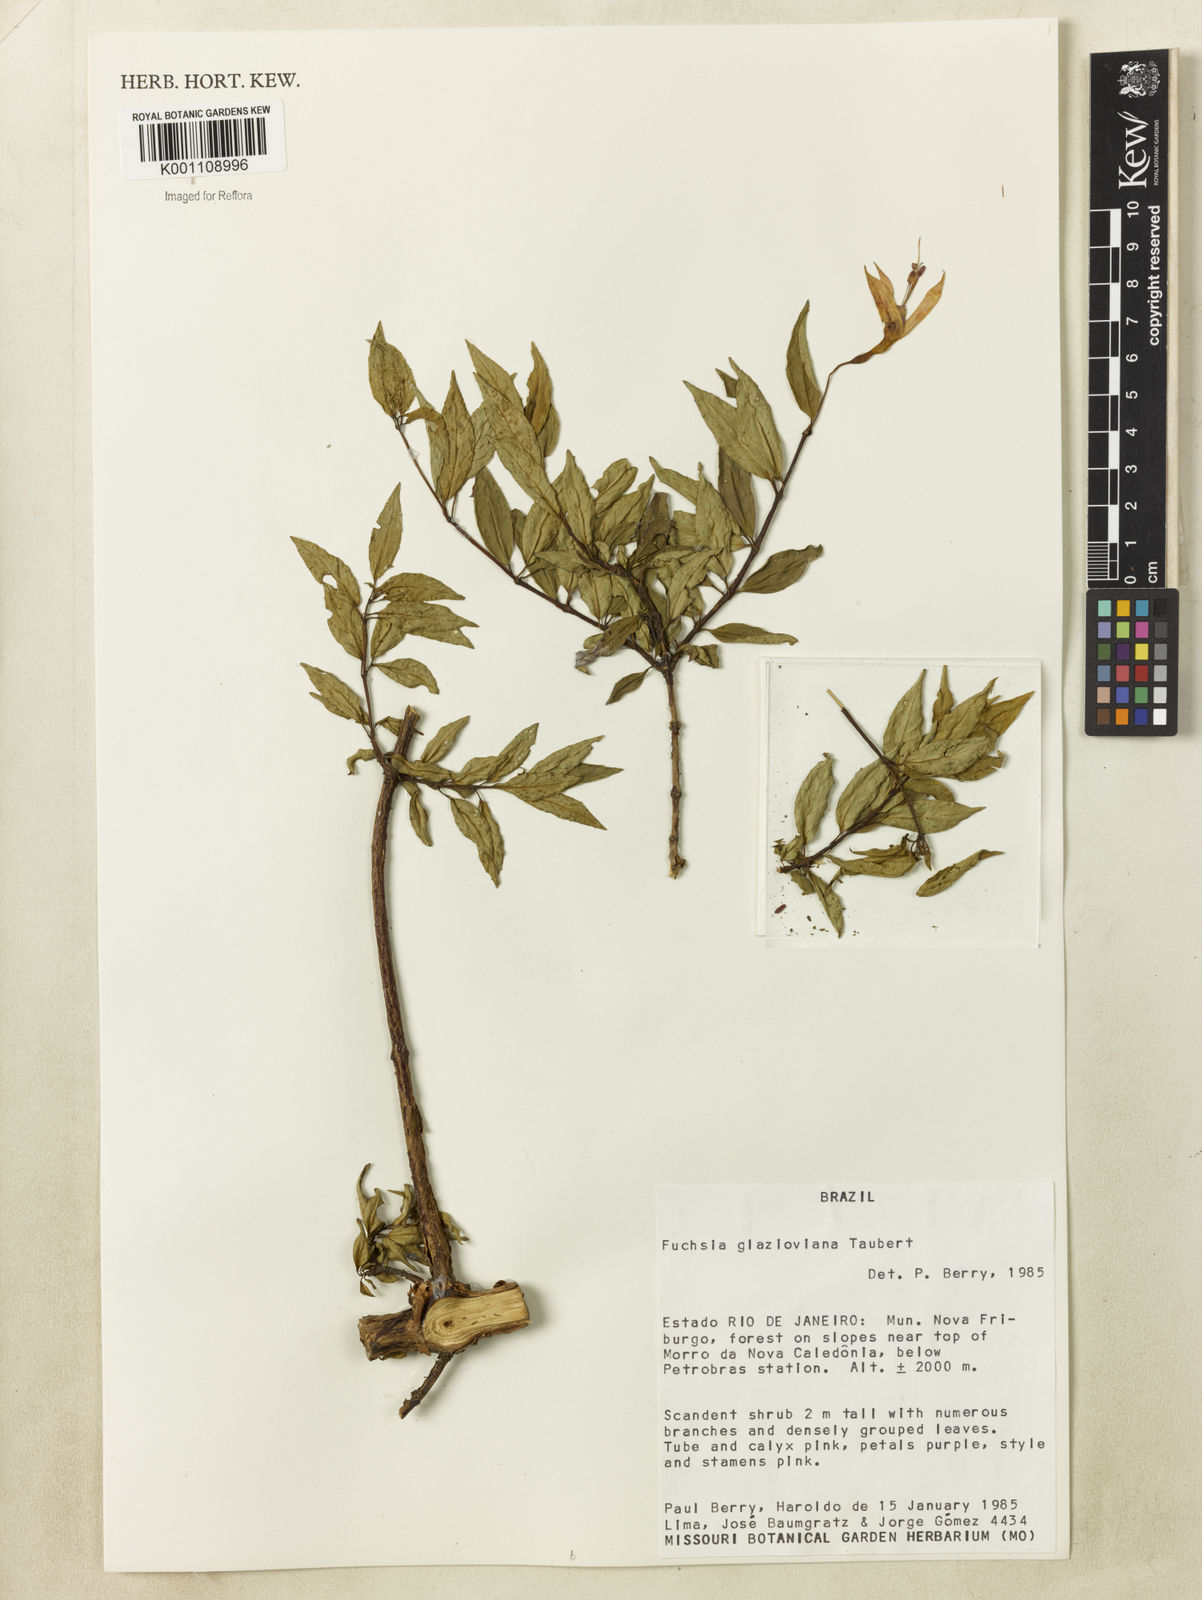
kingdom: Plantae
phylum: Tracheophyta
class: Magnoliopsida
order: Myrtales
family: Onagraceae
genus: Fuchsia
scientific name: Fuchsia glazioviana
